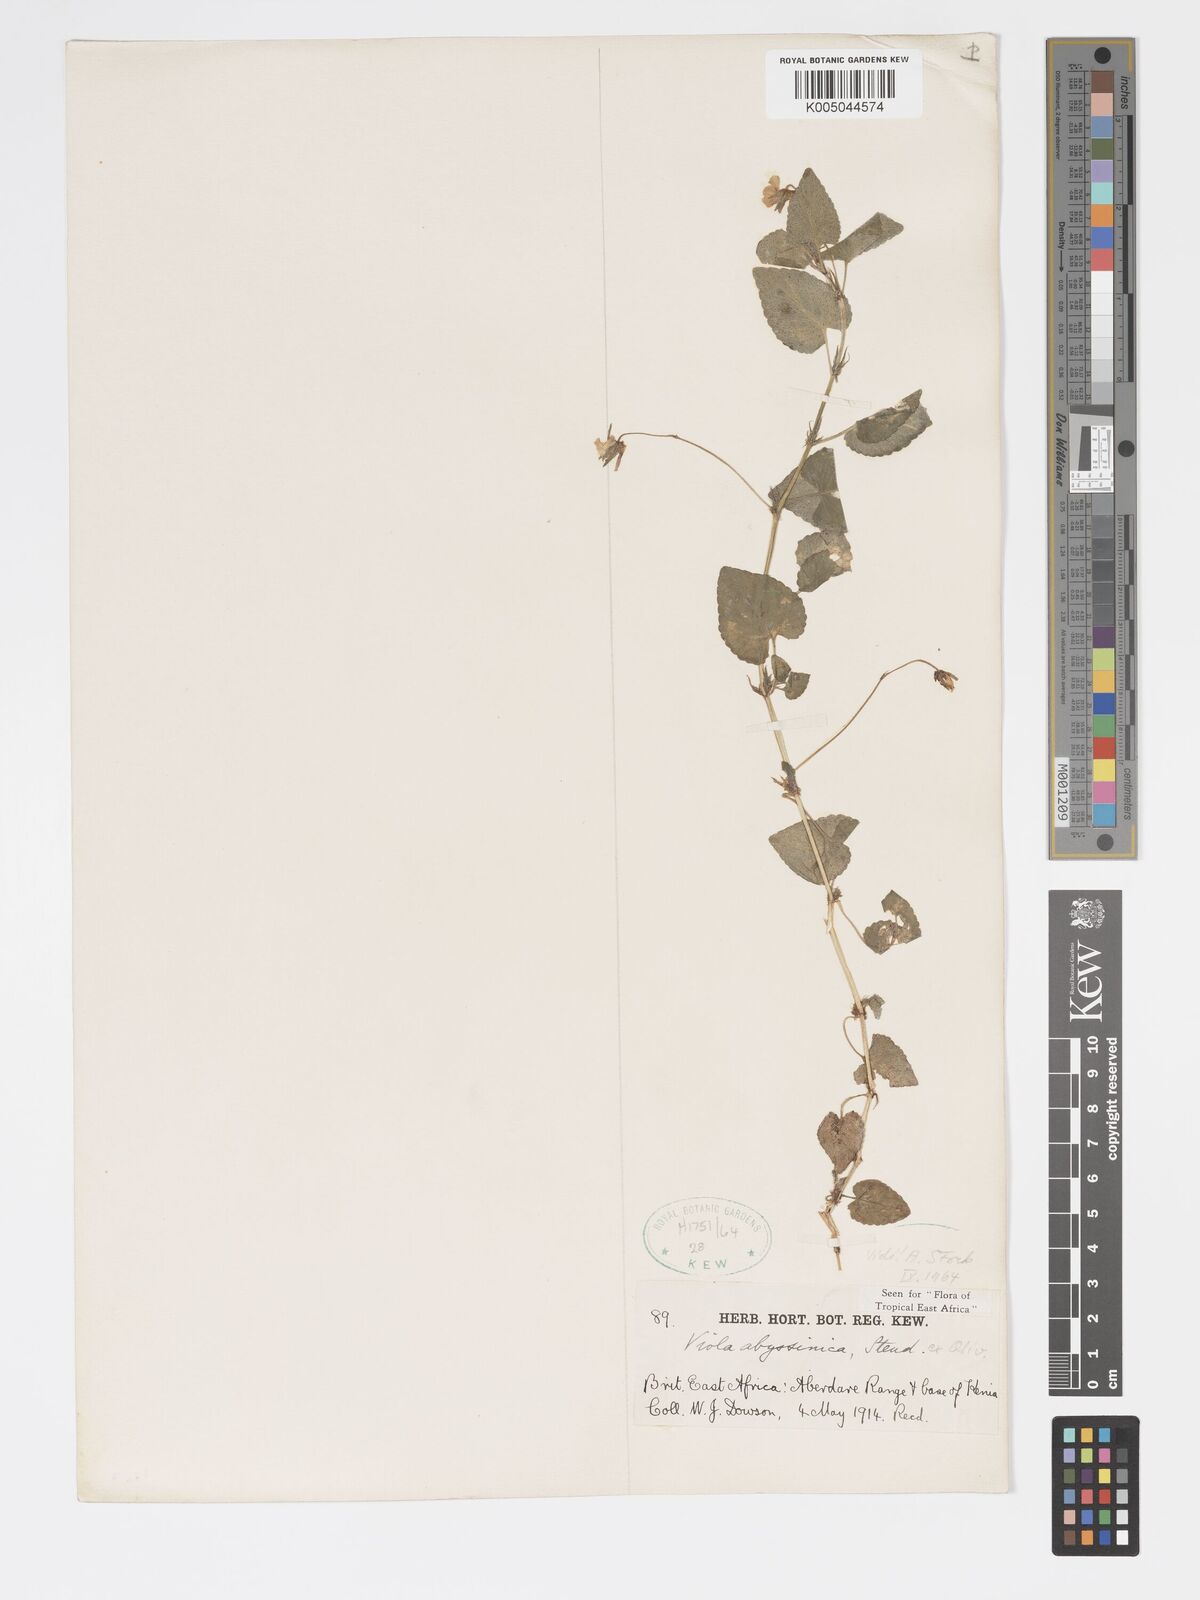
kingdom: Plantae
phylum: Tracheophyta
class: Magnoliopsida
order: Malpighiales
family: Violaceae
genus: Viola
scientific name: Viola abyssinica
